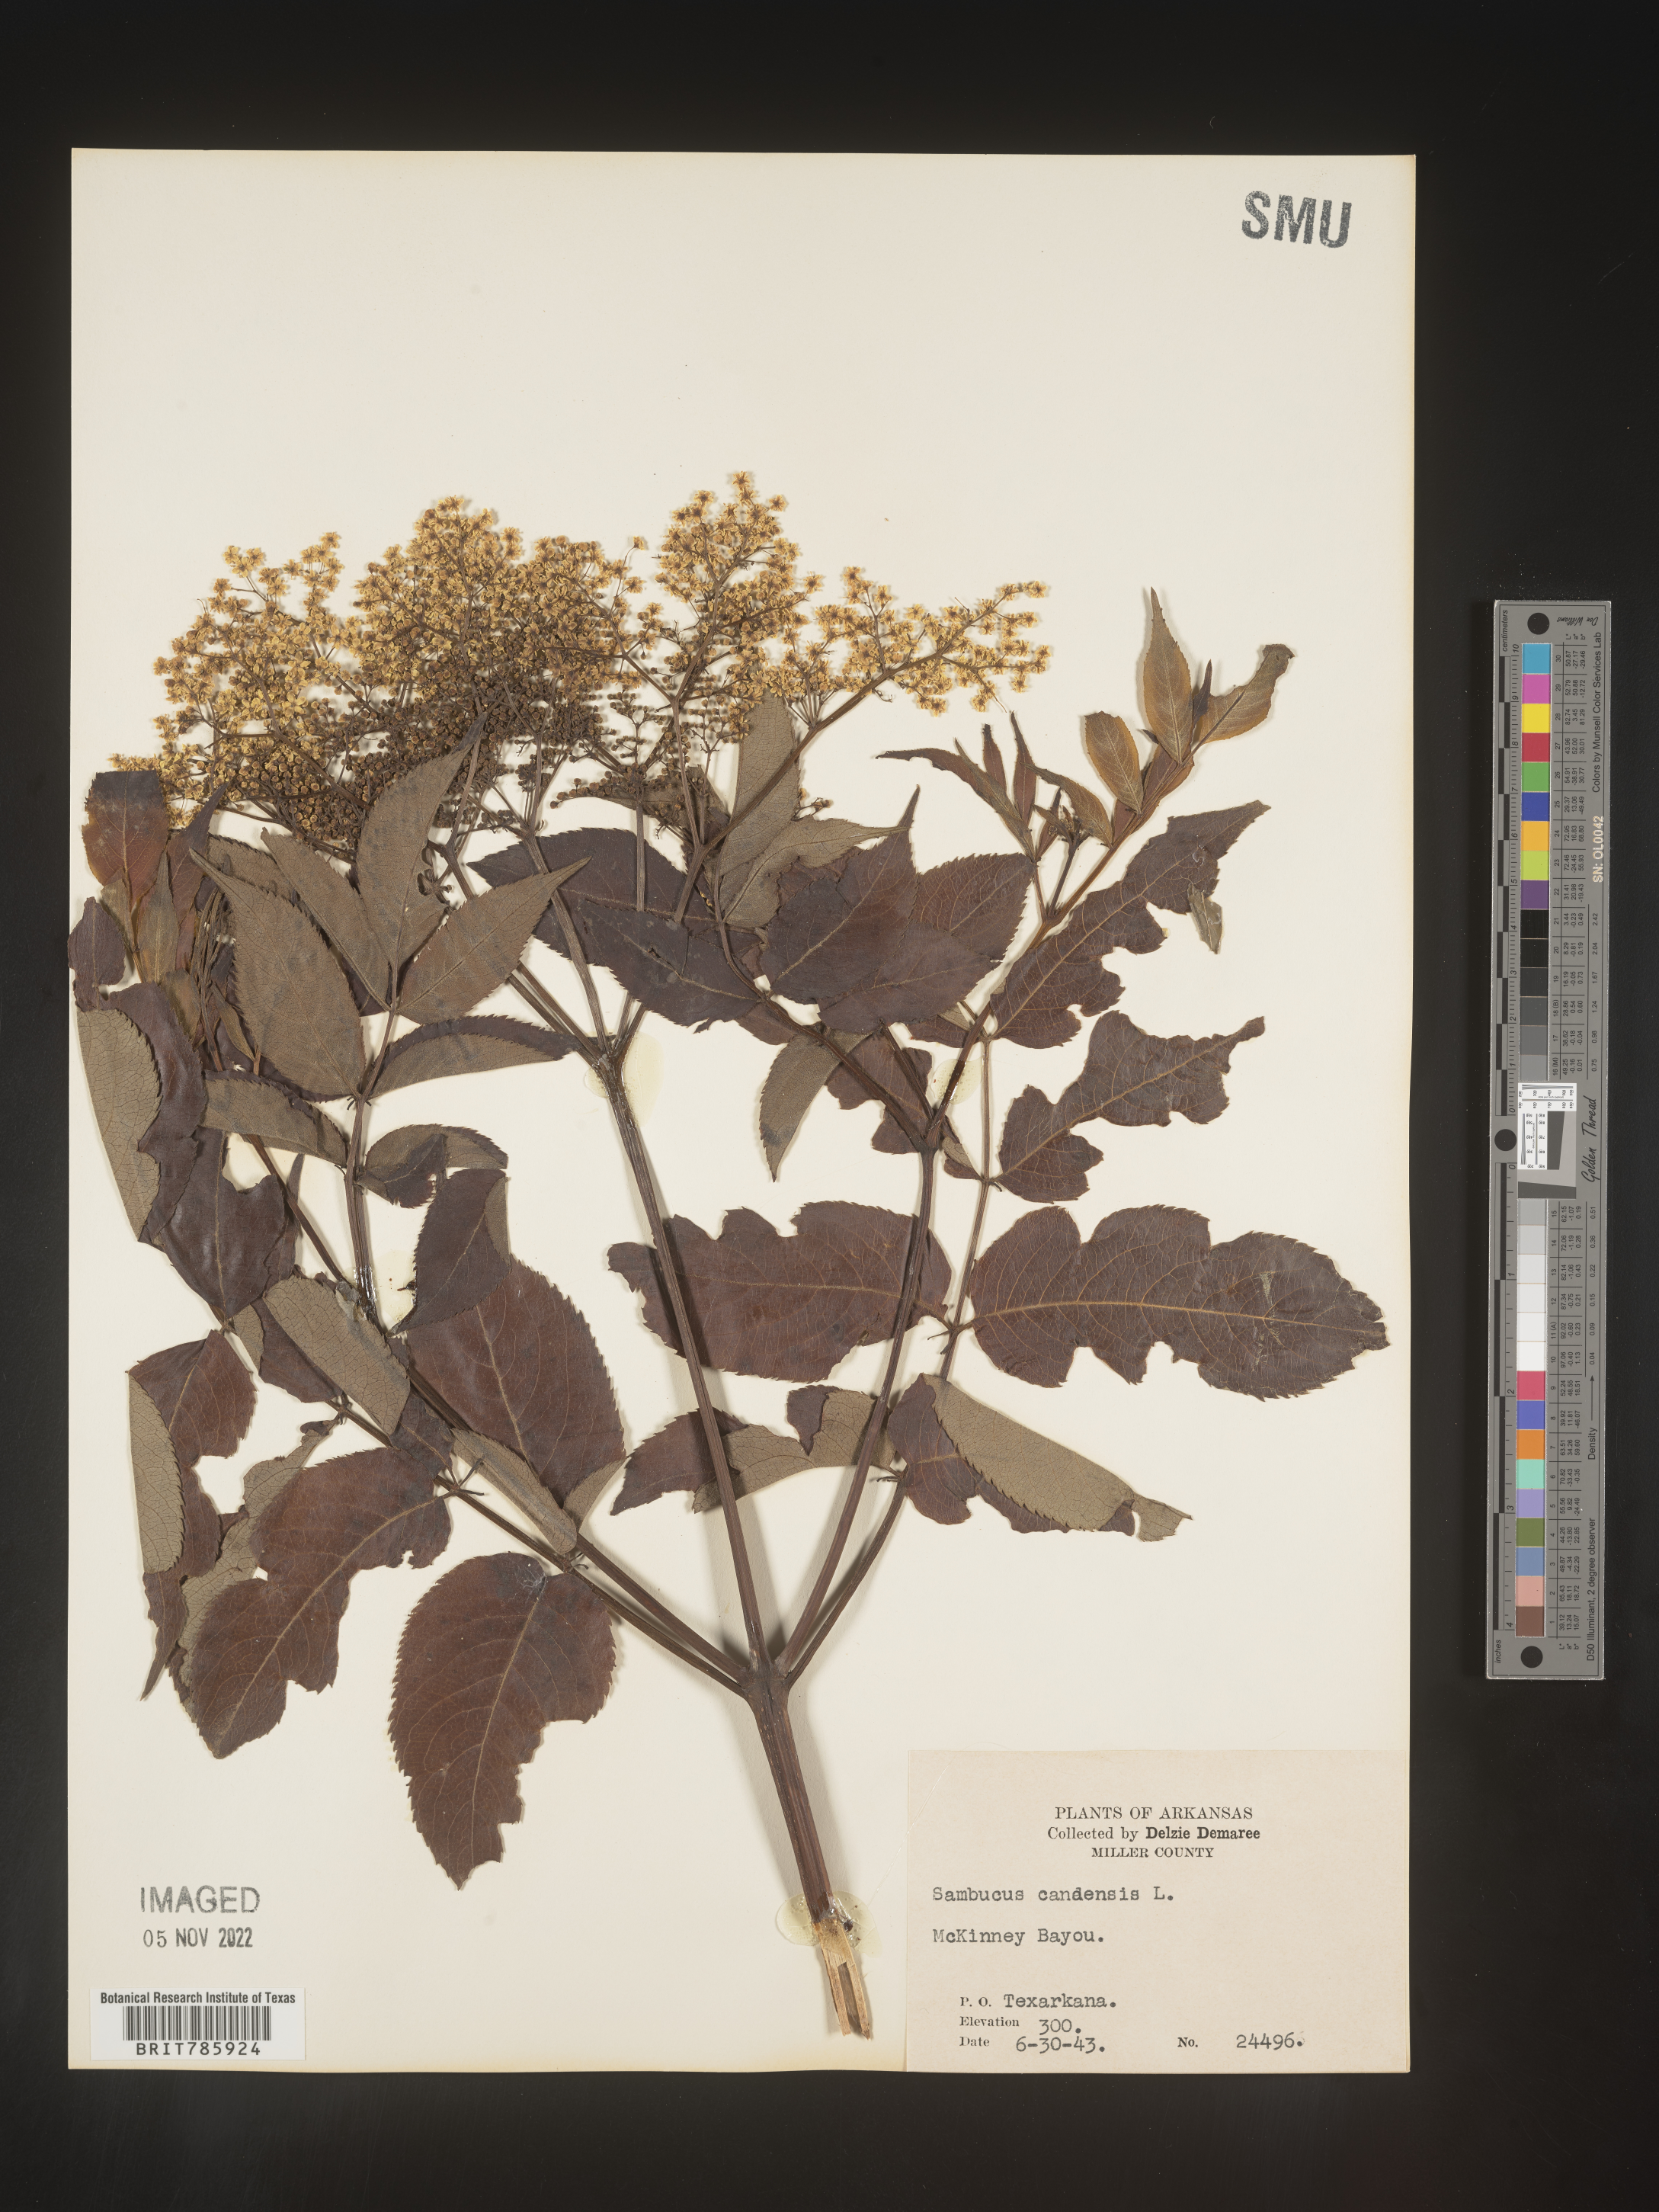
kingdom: Plantae
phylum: Tracheophyta
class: Magnoliopsida
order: Dipsacales
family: Viburnaceae
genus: Sambucus
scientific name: Sambucus nigra
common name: Elder
